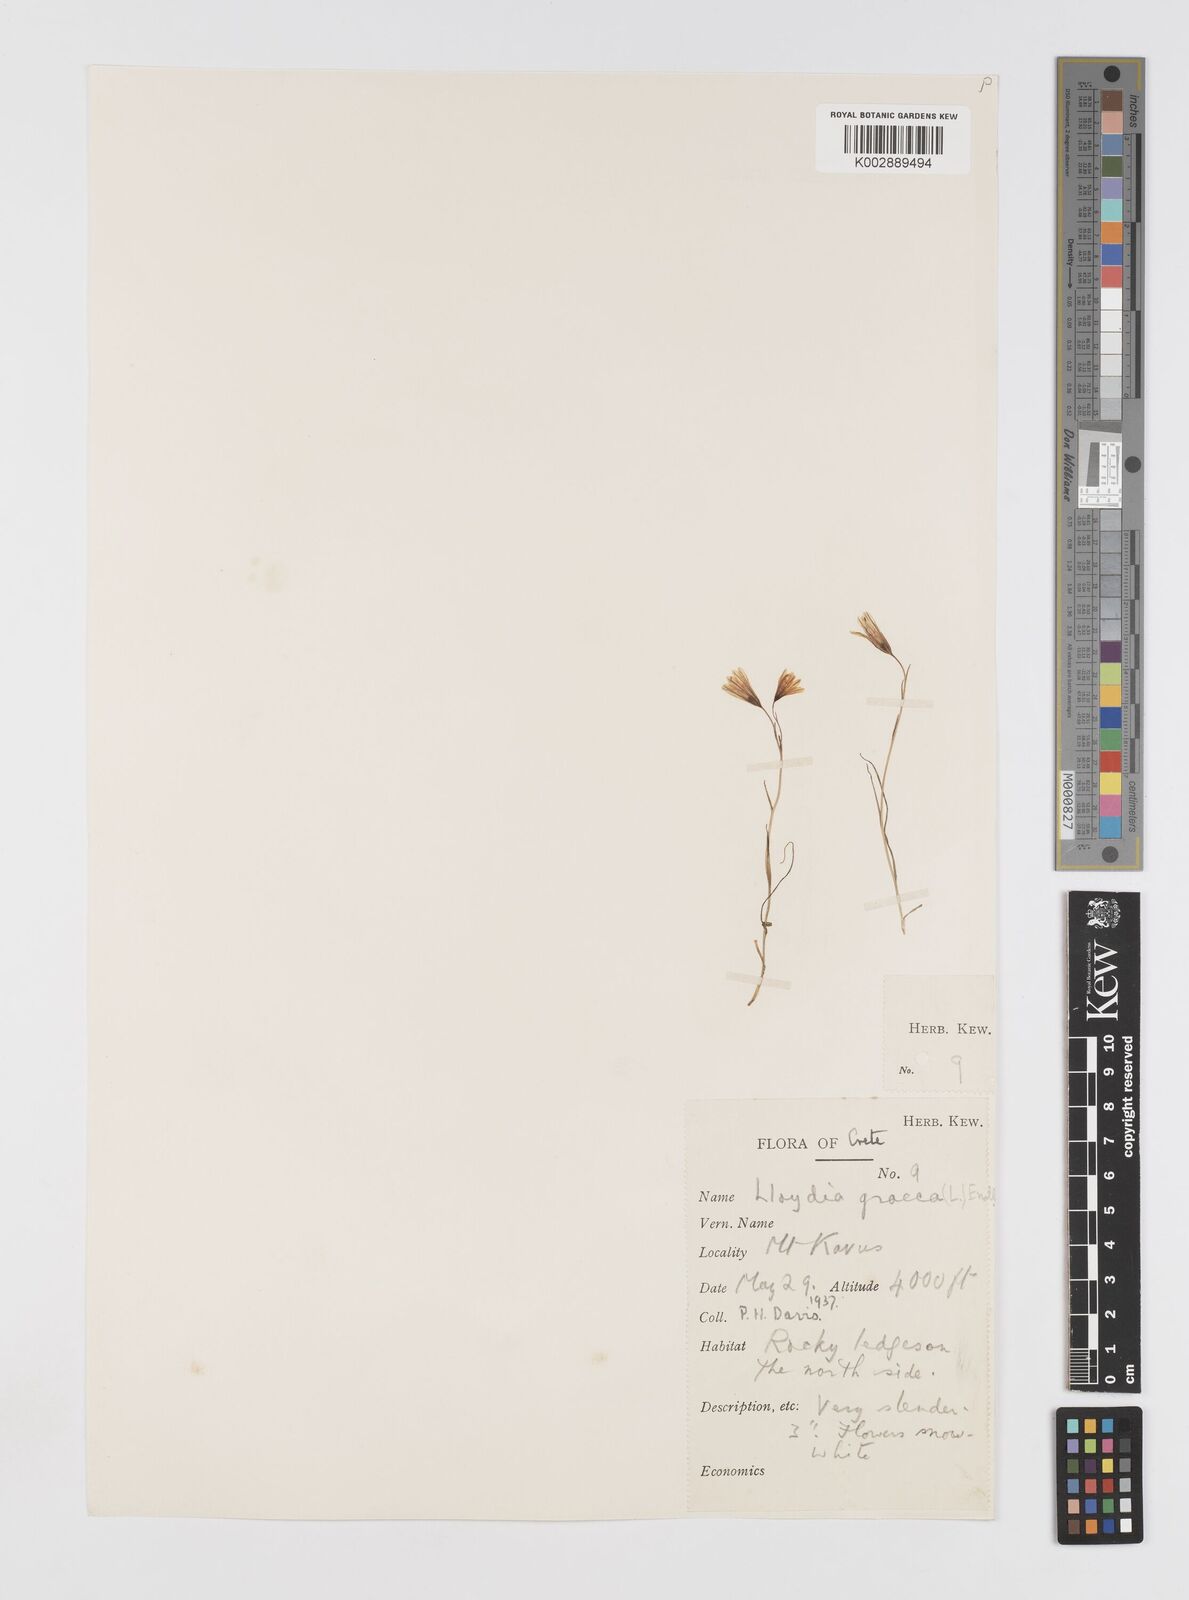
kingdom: Plantae
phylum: Tracheophyta
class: Liliopsida
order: Liliales
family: Liliaceae
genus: Gagea
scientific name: Gagea graeca
